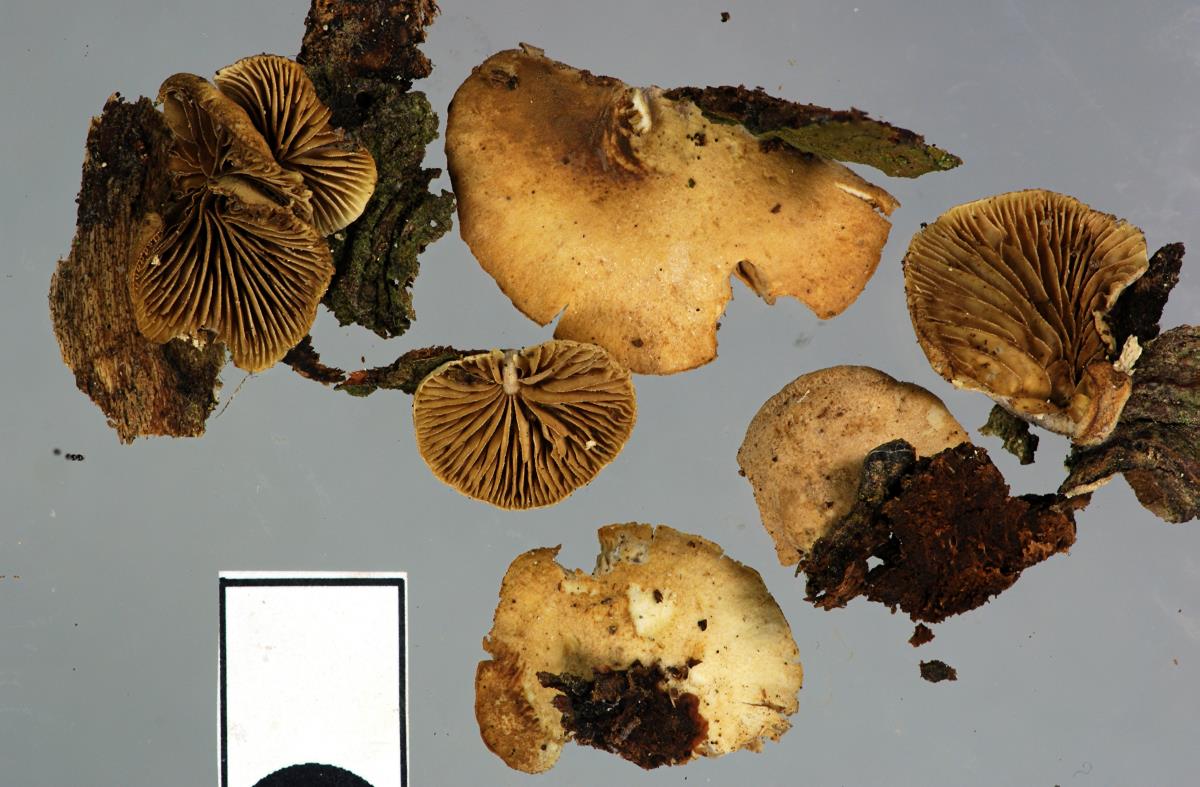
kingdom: Fungi
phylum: Basidiomycota
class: Agaricomycetes
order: Agaricales
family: Crepidotaceae
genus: Simocybe
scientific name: Simocybe rhabarbarina
